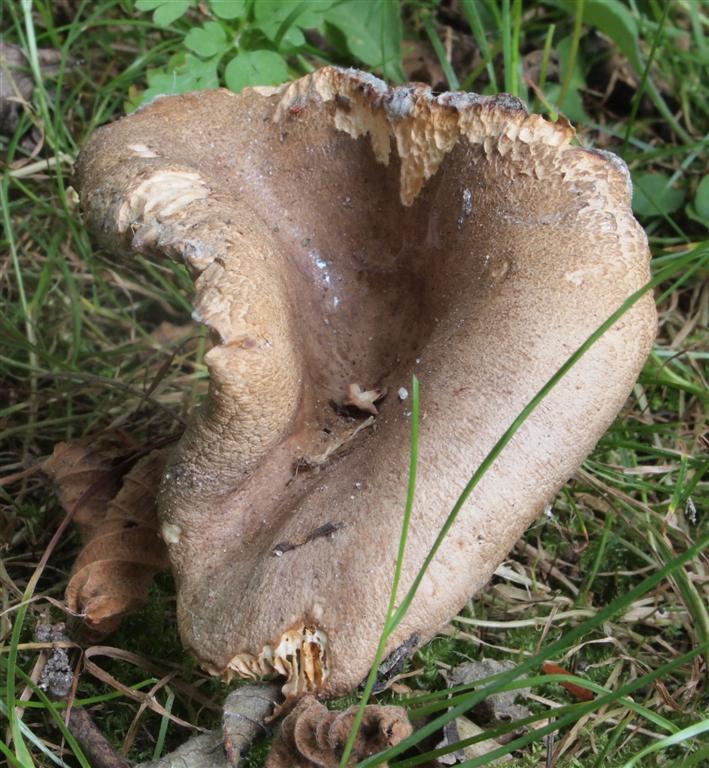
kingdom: Fungi
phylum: Basidiomycota
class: Agaricomycetes
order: Russulales
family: Russulaceae
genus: Lactarius
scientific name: Lactarius pyrogalus
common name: hassel-mælkehat
